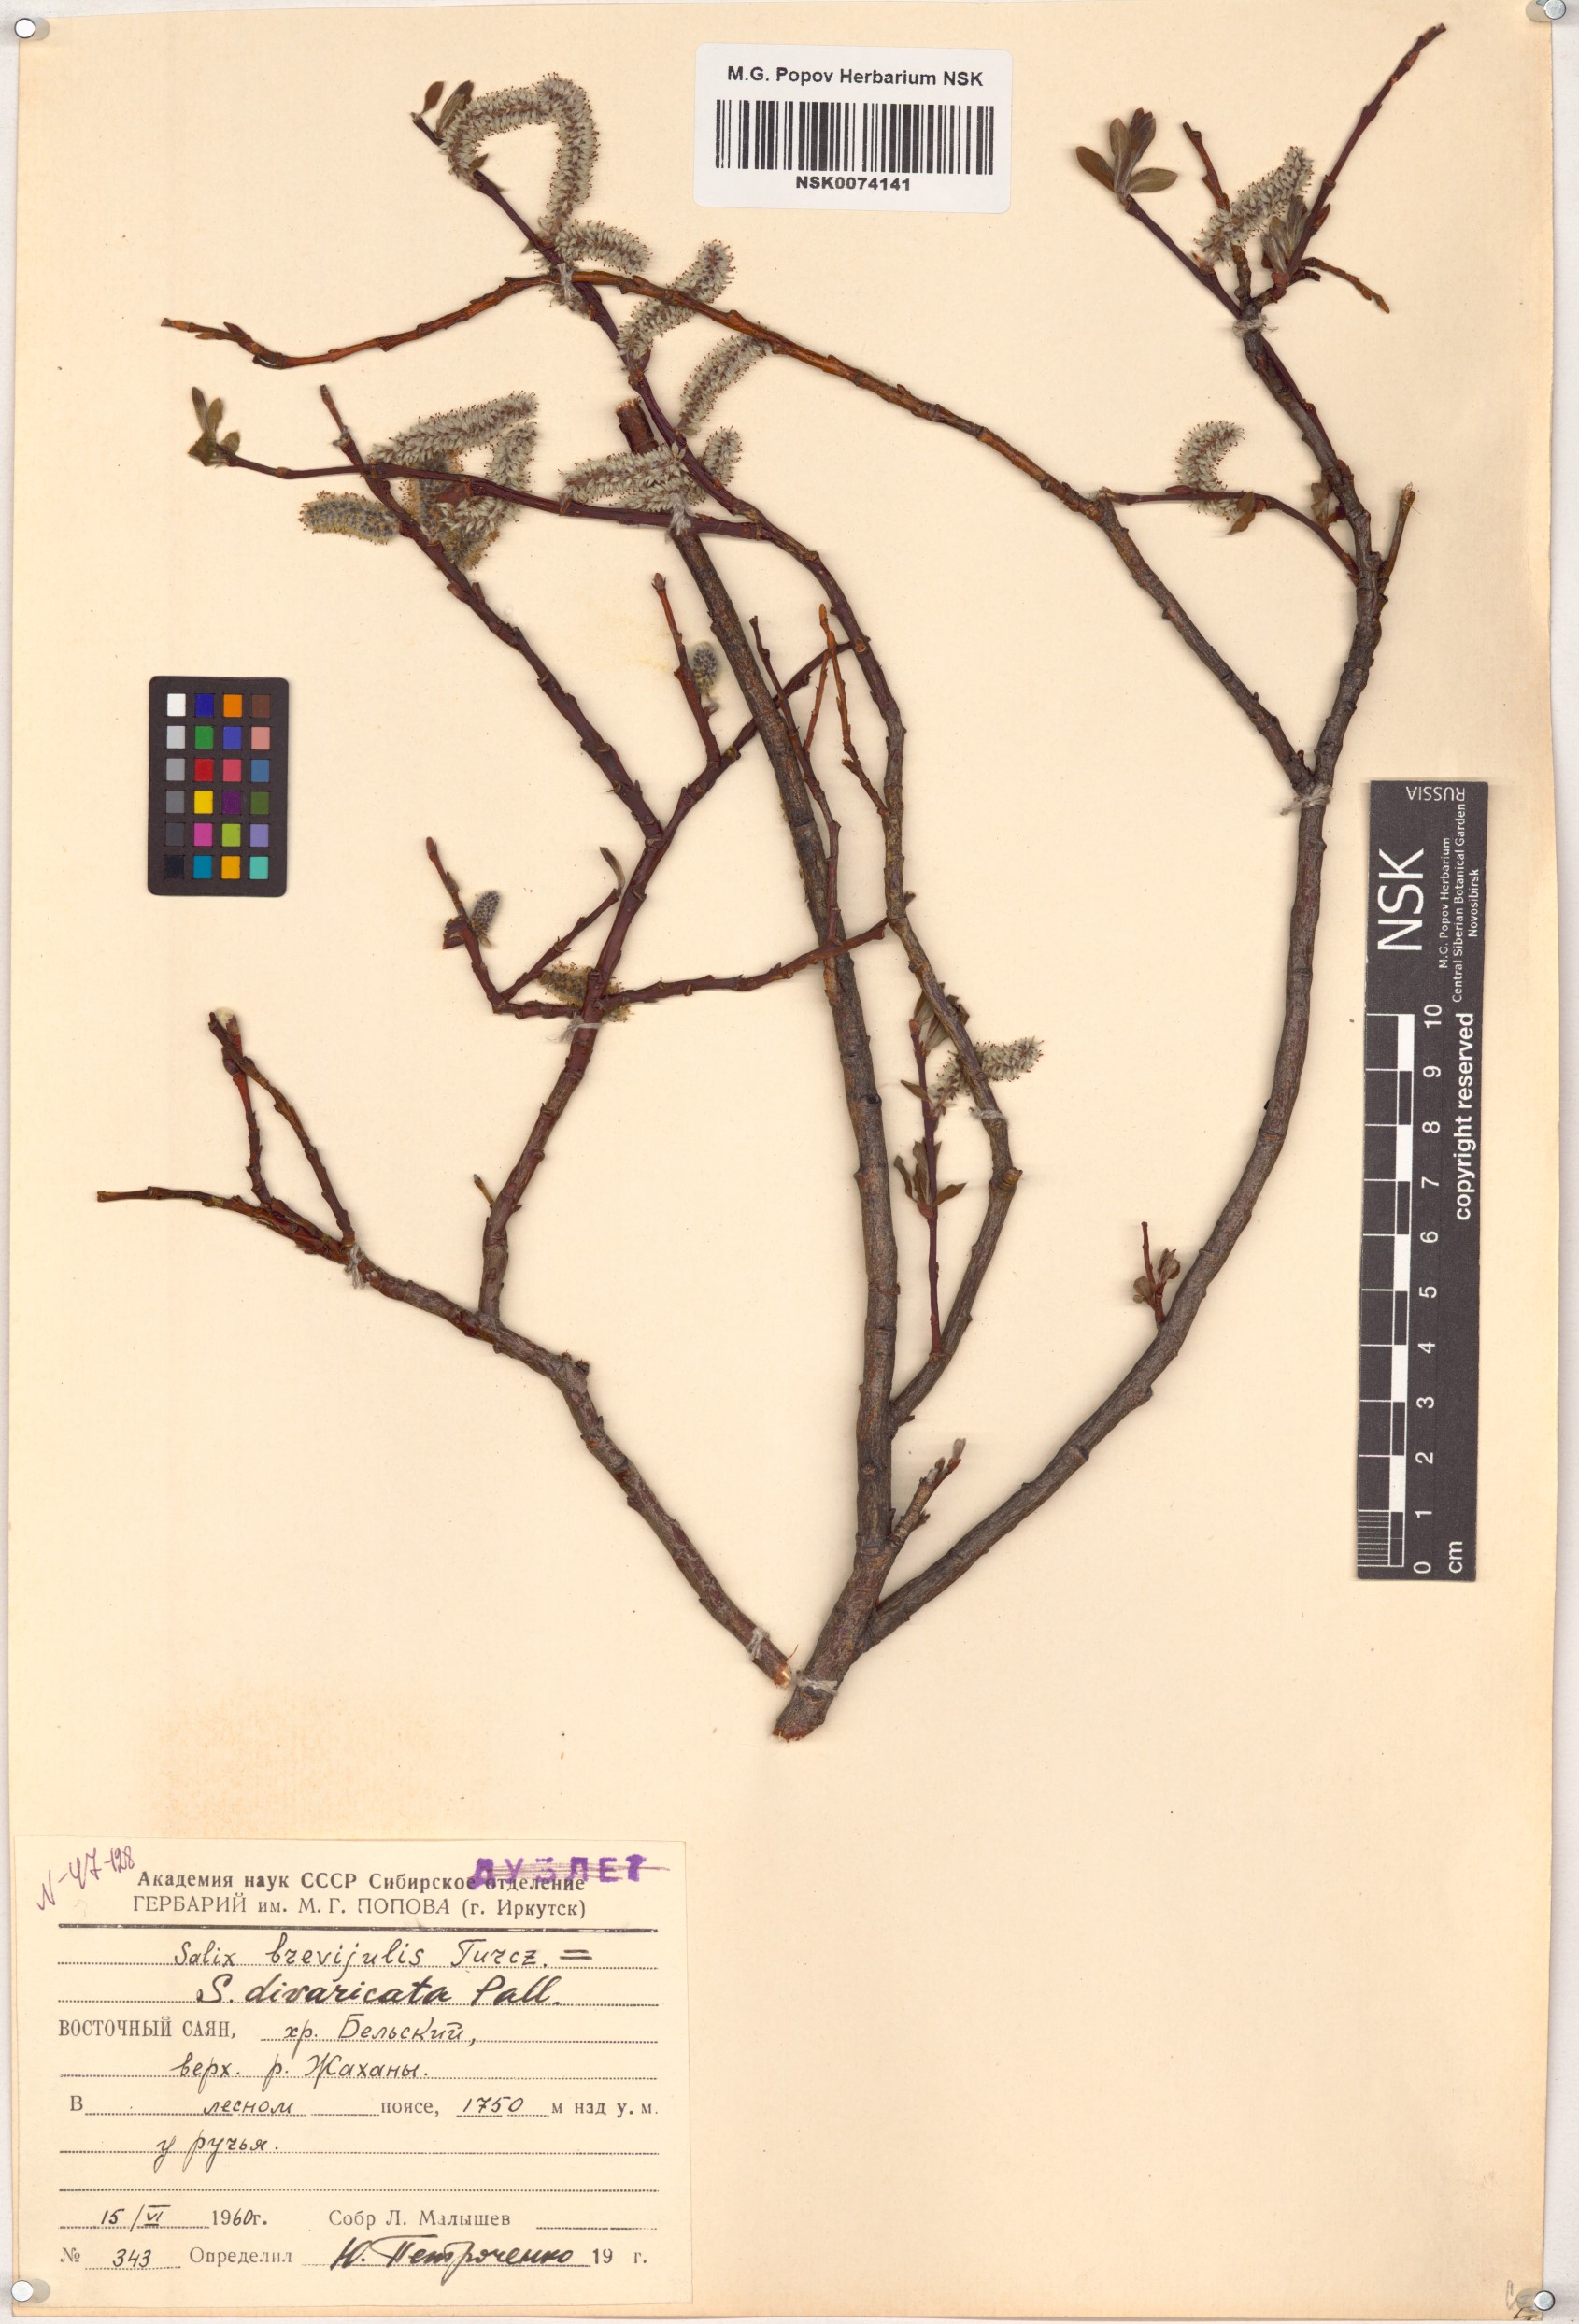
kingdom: Plantae
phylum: Tracheophyta
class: Magnoliopsida
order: Malpighiales
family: Salicaceae
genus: Salix
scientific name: Salix divaricata
